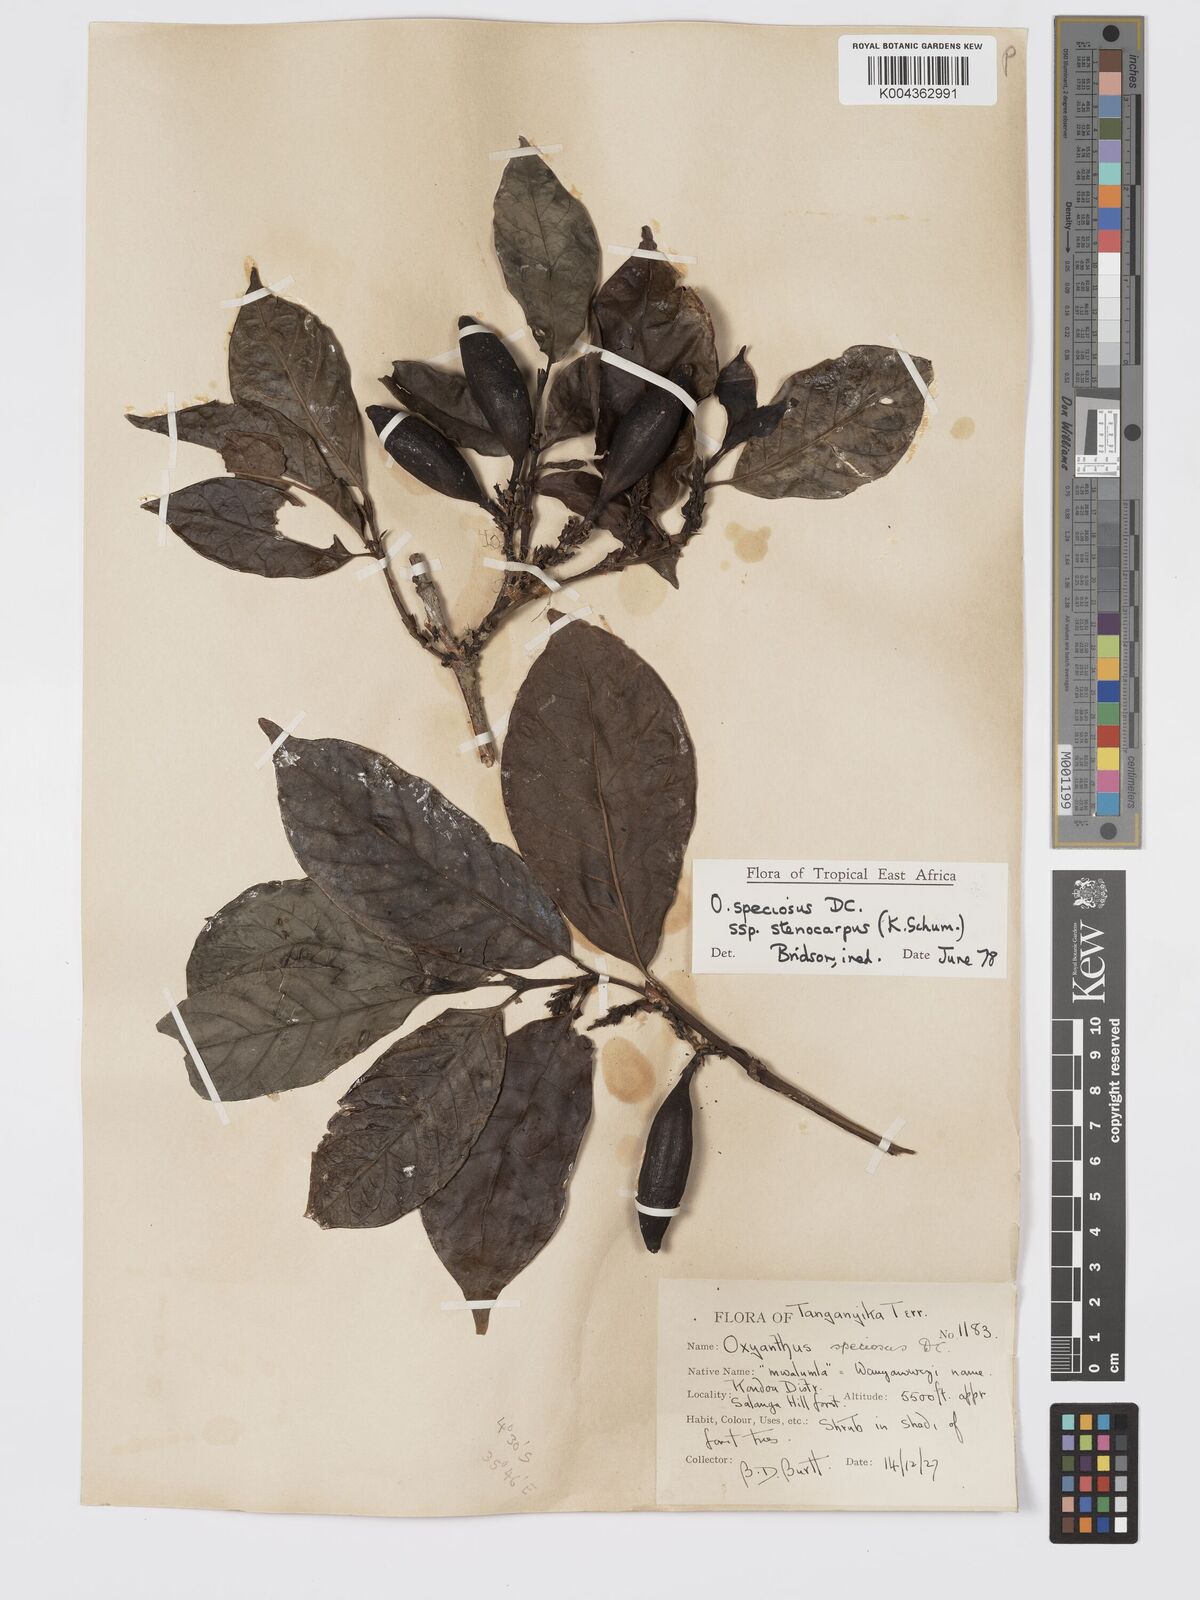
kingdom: Plantae
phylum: Tracheophyta
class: Magnoliopsida
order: Gentianales
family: Rubiaceae
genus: Oxyanthus
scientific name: Oxyanthus speciosus
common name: Whipstick loquat
